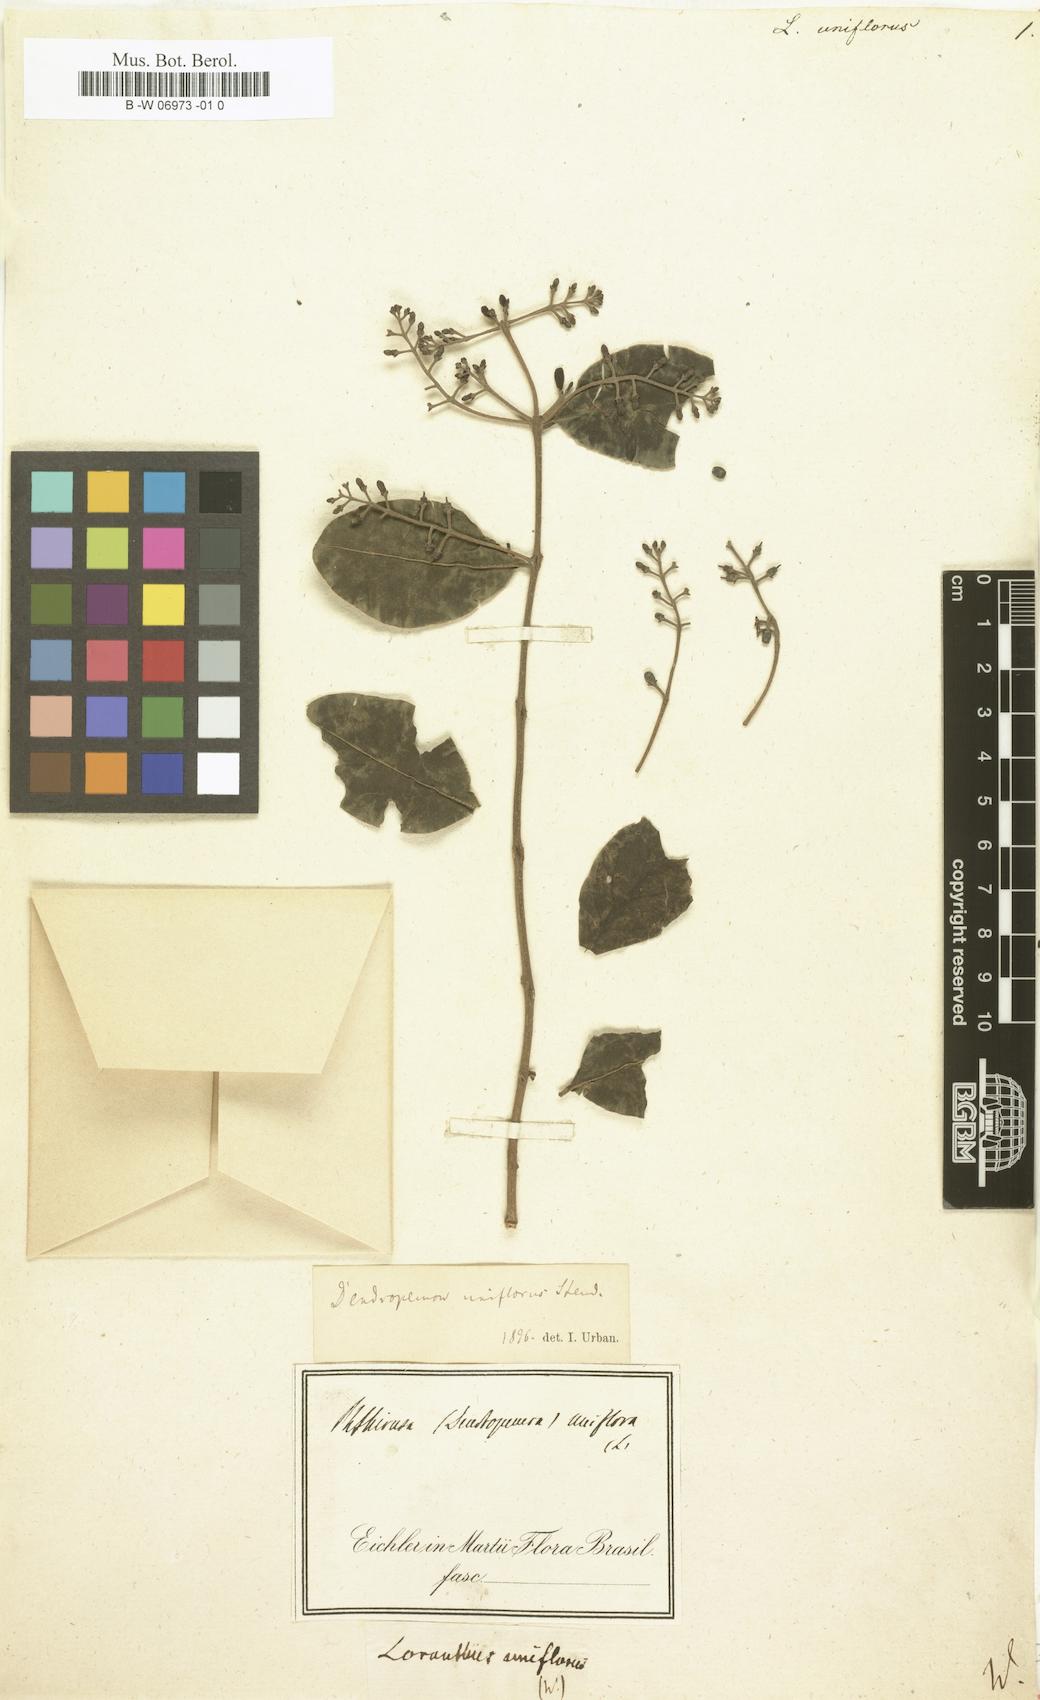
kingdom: Plantae
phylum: Tracheophyta
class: Magnoliopsida
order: Santalales
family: Loranthaceae
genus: Dendropemon
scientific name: Dendropemon purpureus
